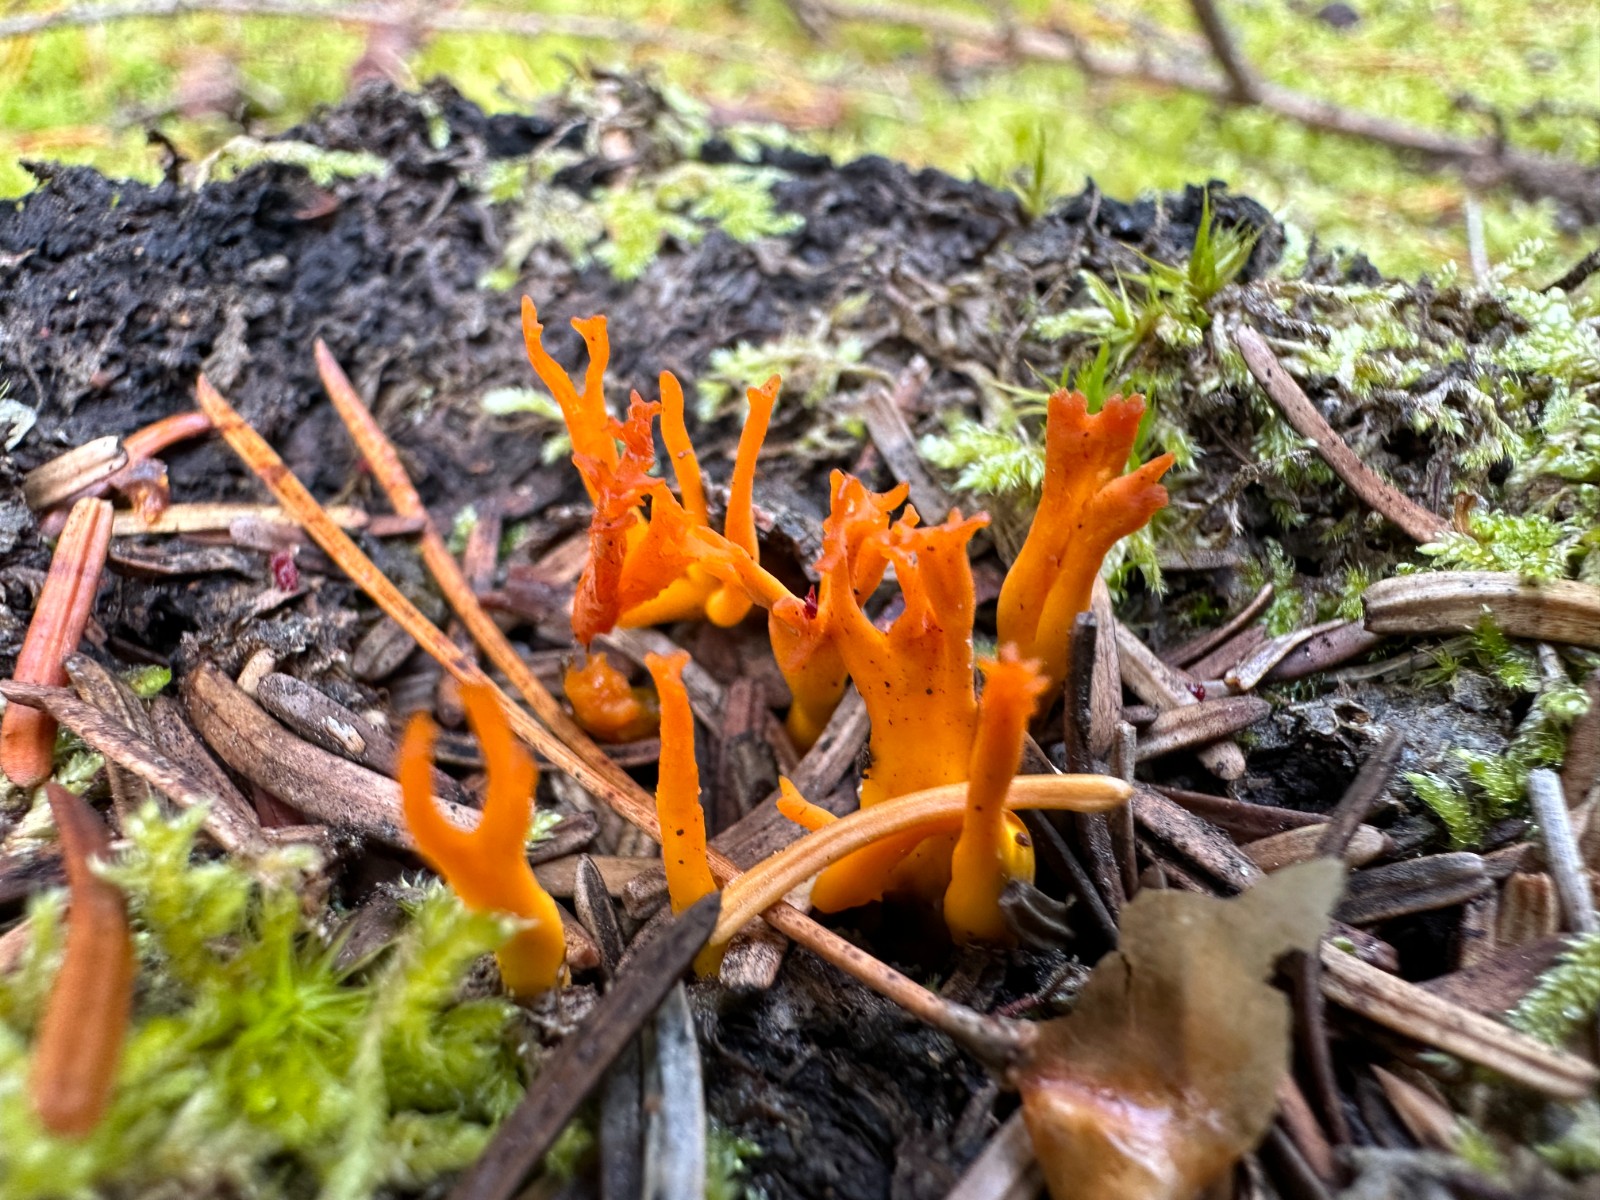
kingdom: Fungi
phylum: Basidiomycota
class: Dacrymycetes
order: Dacrymycetales
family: Dacrymycetaceae
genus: Calocera
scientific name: Calocera viscosa
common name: almindelig guldgaffel
